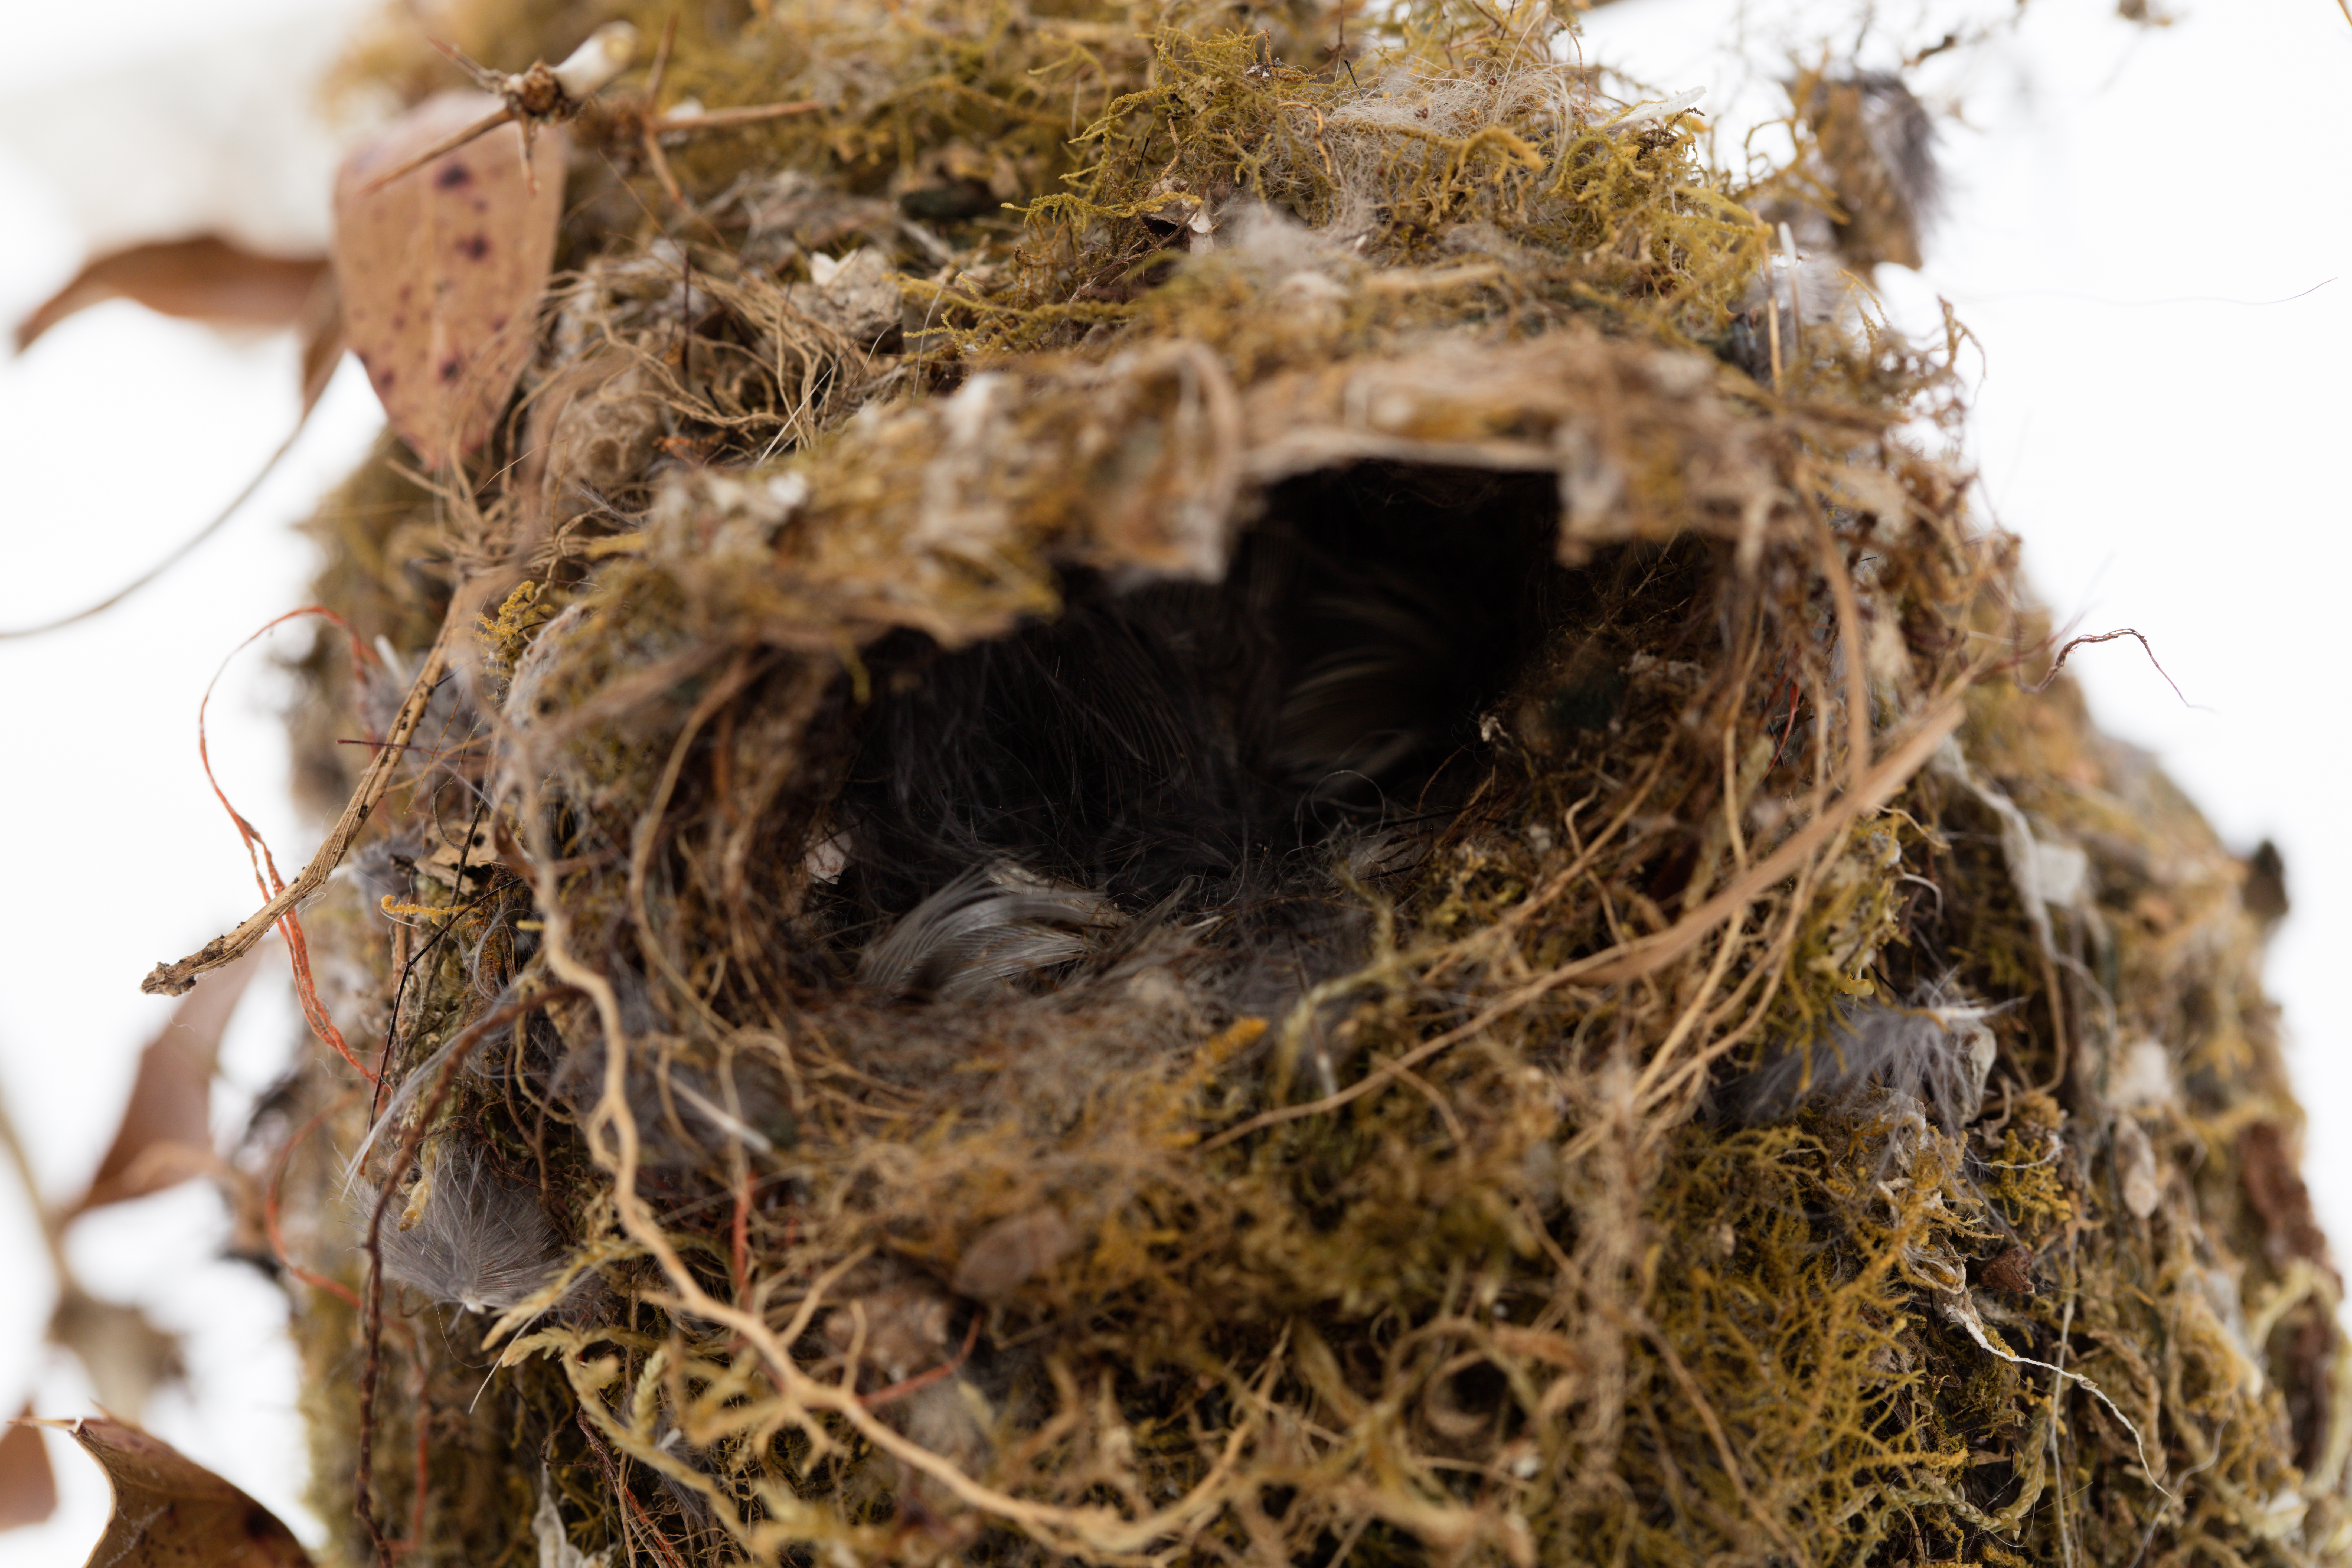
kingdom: Animalia
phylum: Chordata
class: Aves
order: Passeriformes
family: Acanthizidae
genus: Gerygone
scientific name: Gerygone igata
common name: Grey gerygone
